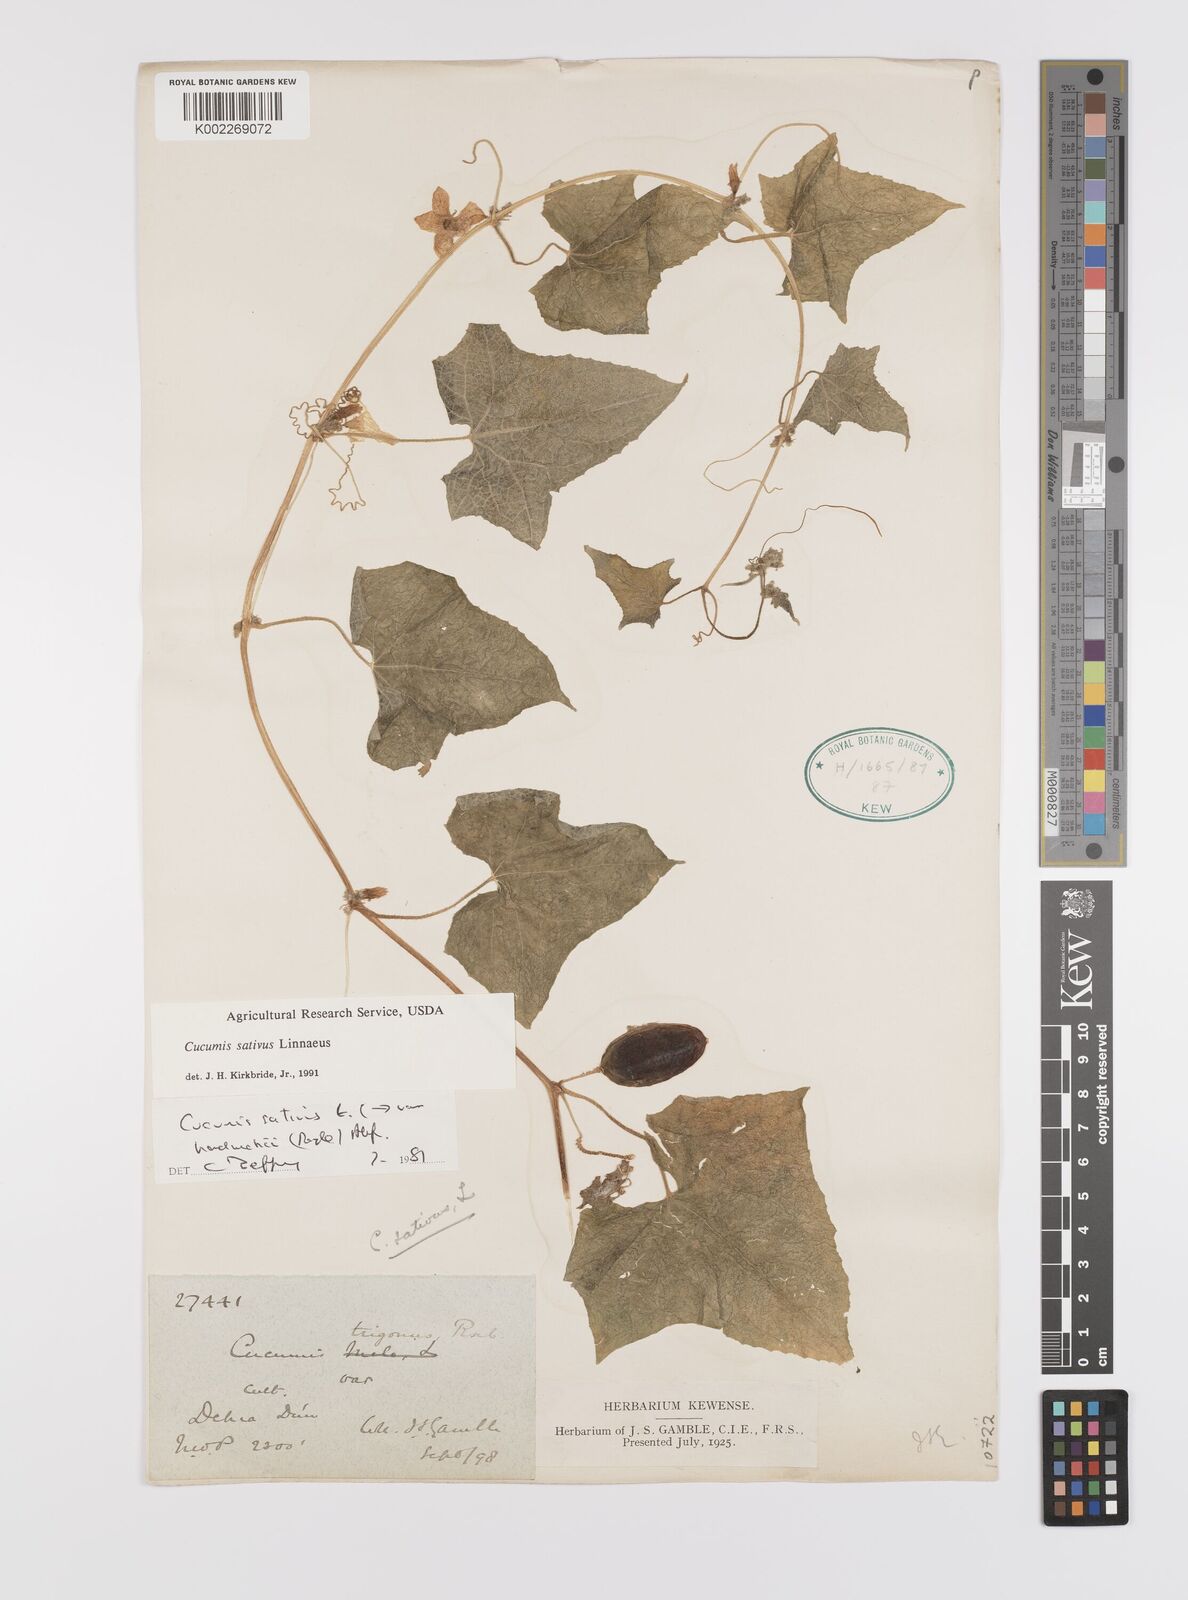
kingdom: Plantae
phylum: Tracheophyta
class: Magnoliopsida
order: Cucurbitales
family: Cucurbitaceae
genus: Cucumis
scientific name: Cucumis sativus
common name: Cucumber
